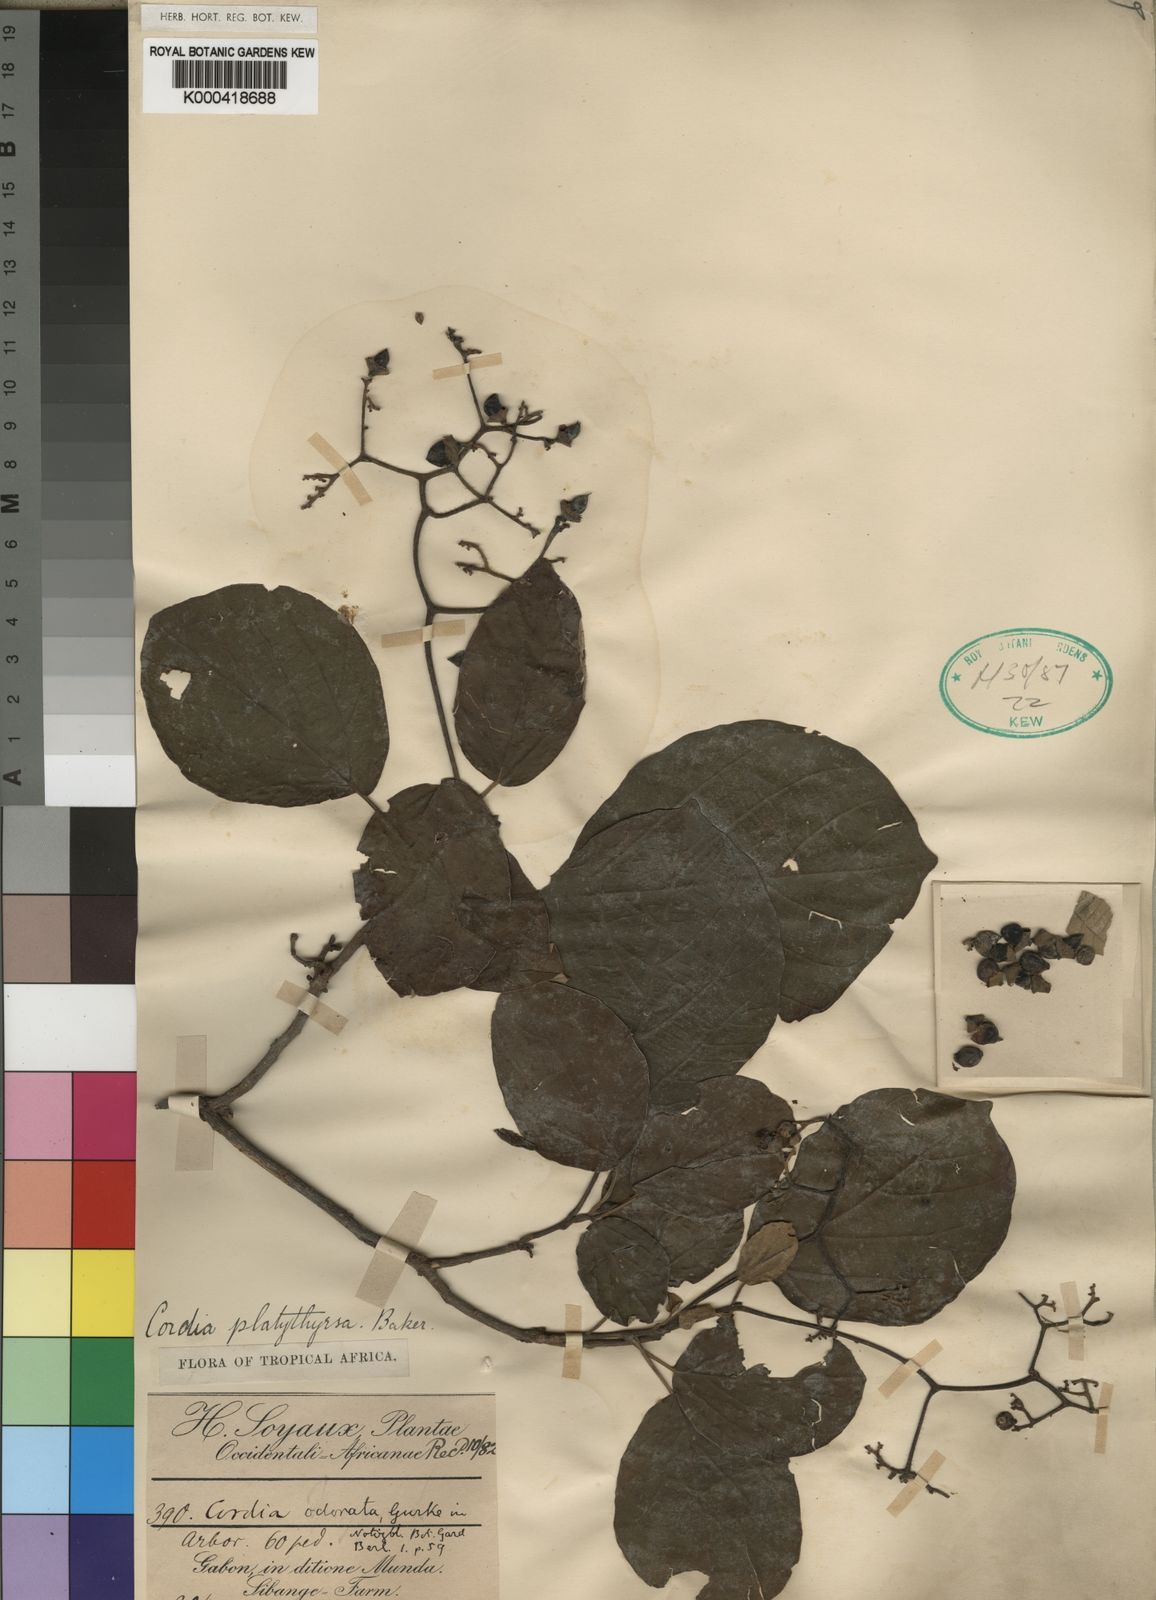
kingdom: Plantae
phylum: Tracheophyta
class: Magnoliopsida
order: Boraginales
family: Cordiaceae
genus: Cordia
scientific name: Cordia millenii
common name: Drum tree
